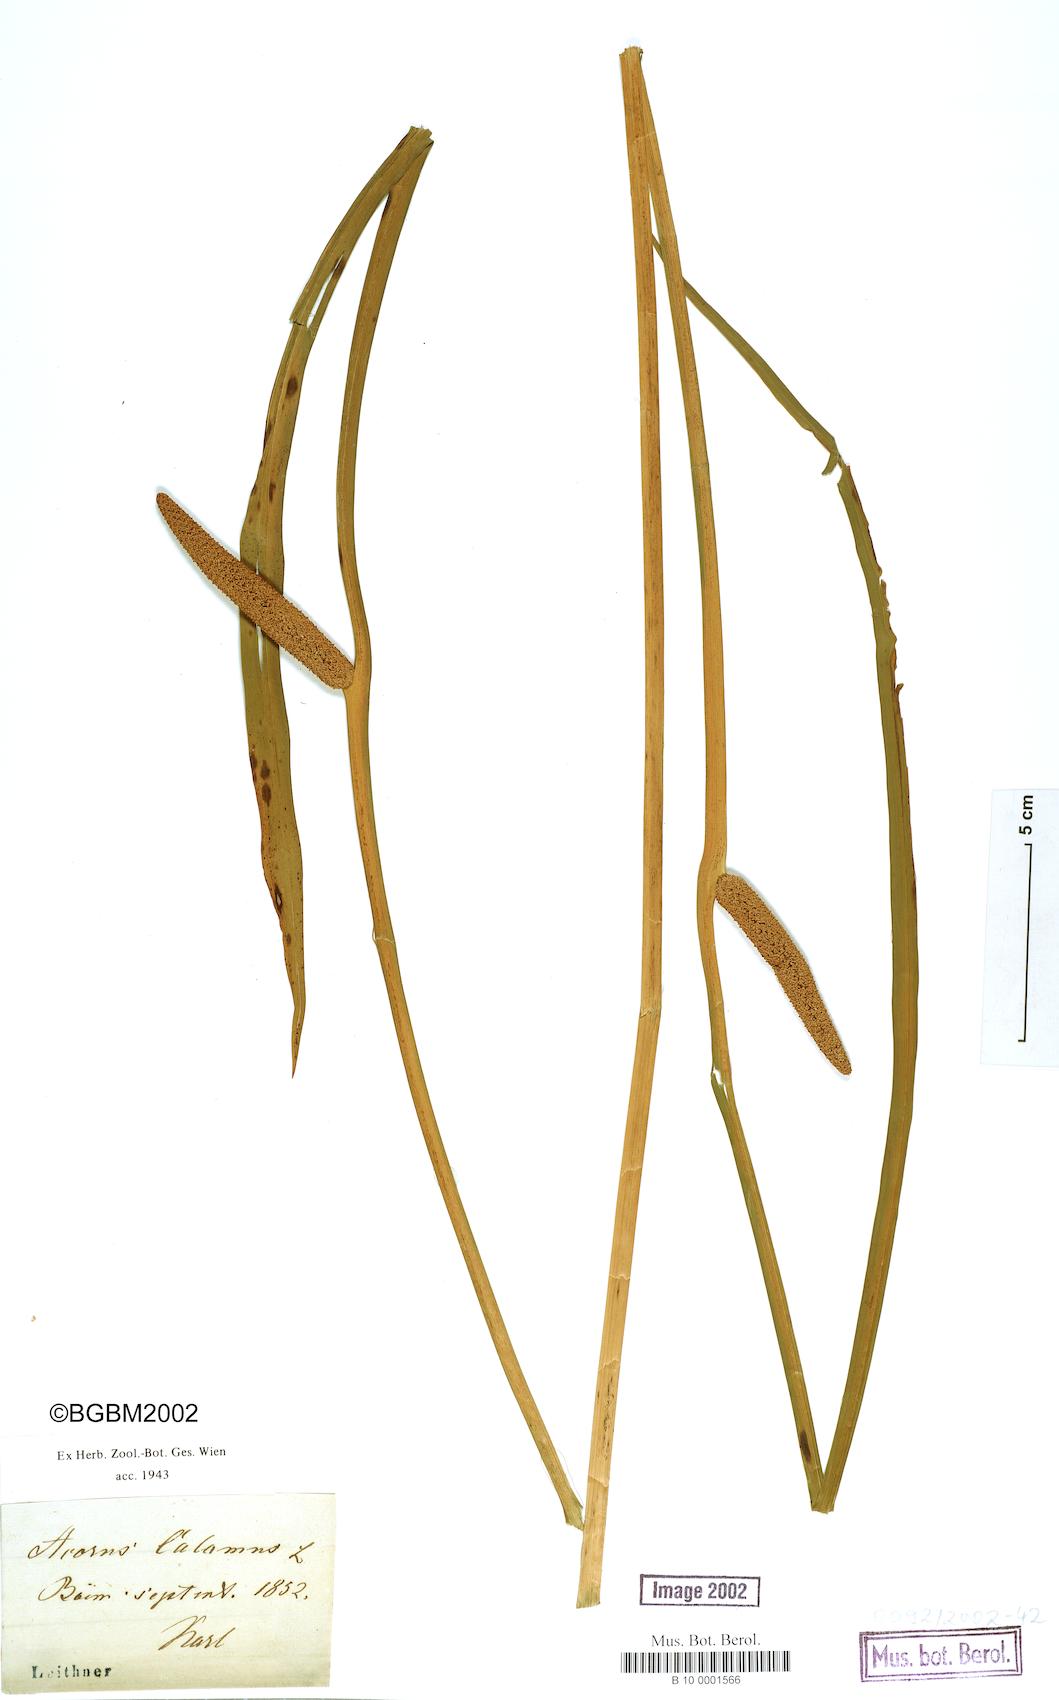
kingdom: Plantae
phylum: Tracheophyta
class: Liliopsida
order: Acorales
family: Acoraceae
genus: Acorus
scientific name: Acorus calamus
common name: Sweet-flag
